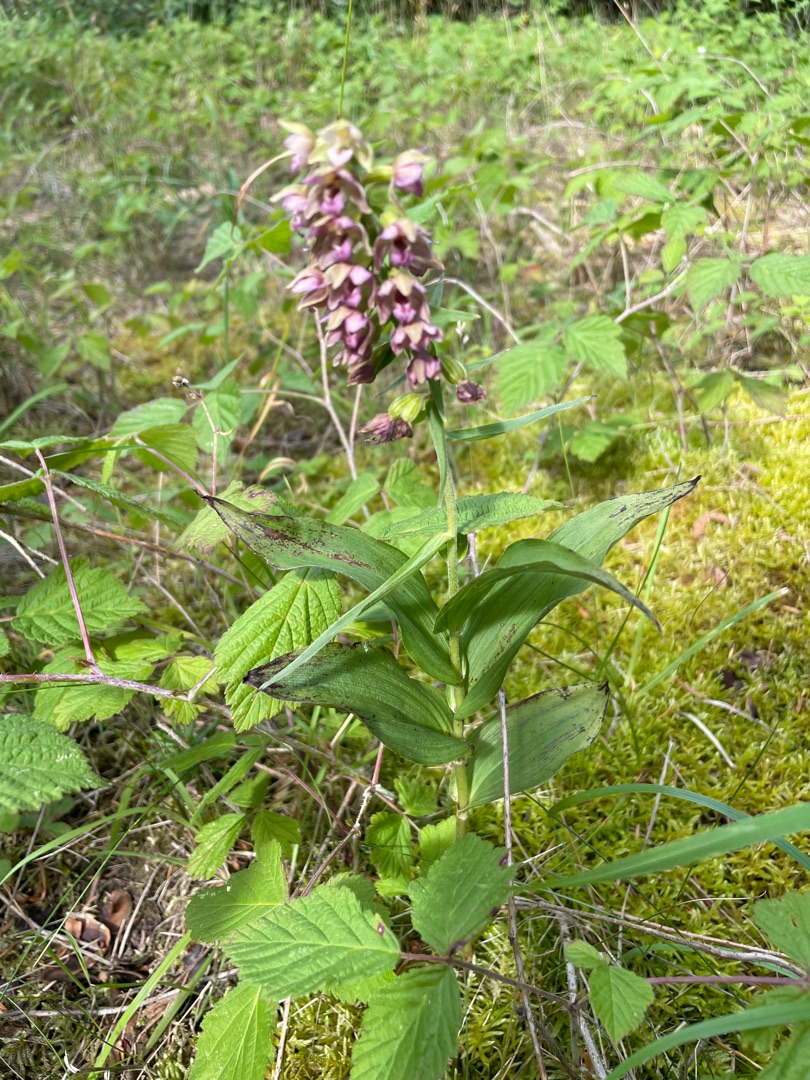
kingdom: Plantae
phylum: Tracheophyta
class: Liliopsida
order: Asparagales
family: Orchidaceae
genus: Epipactis
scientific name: Epipactis helleborine
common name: Skov-hullæbe (underart)
